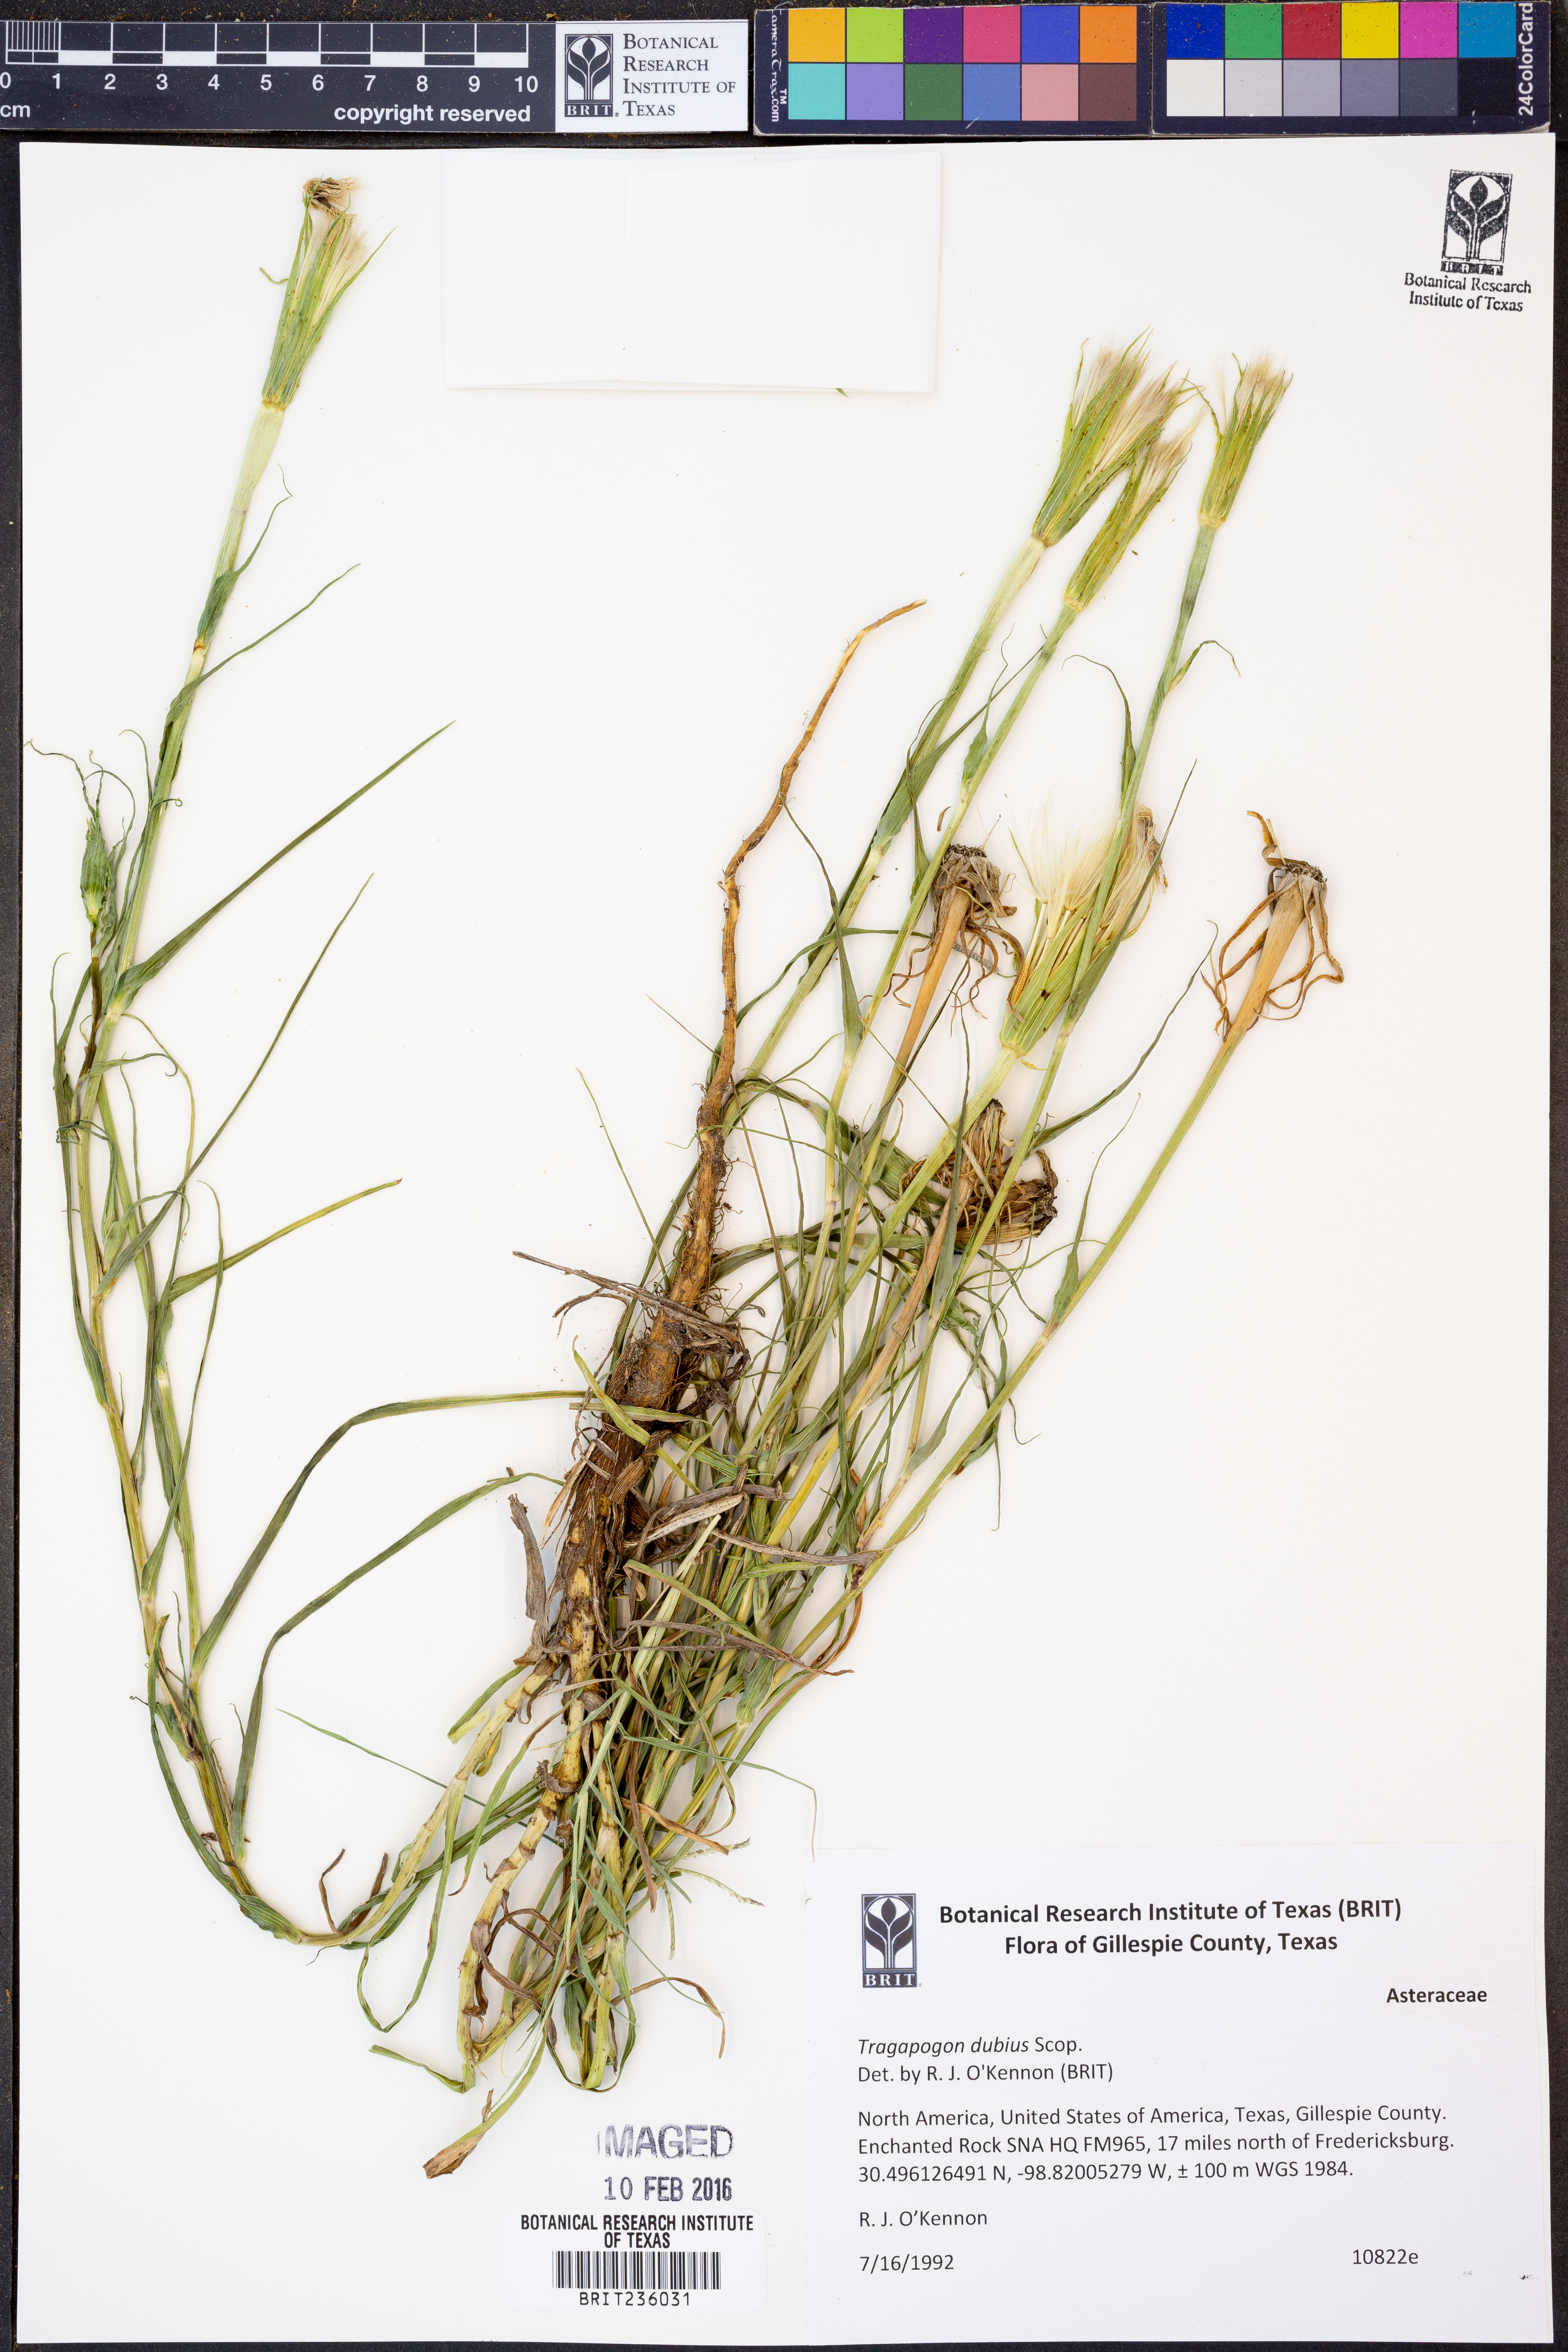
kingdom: Plantae
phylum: Tracheophyta
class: Magnoliopsida
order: Asterales
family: Asteraceae
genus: Tragopogon
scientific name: Tragopogon dubius
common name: Yellow salsify
